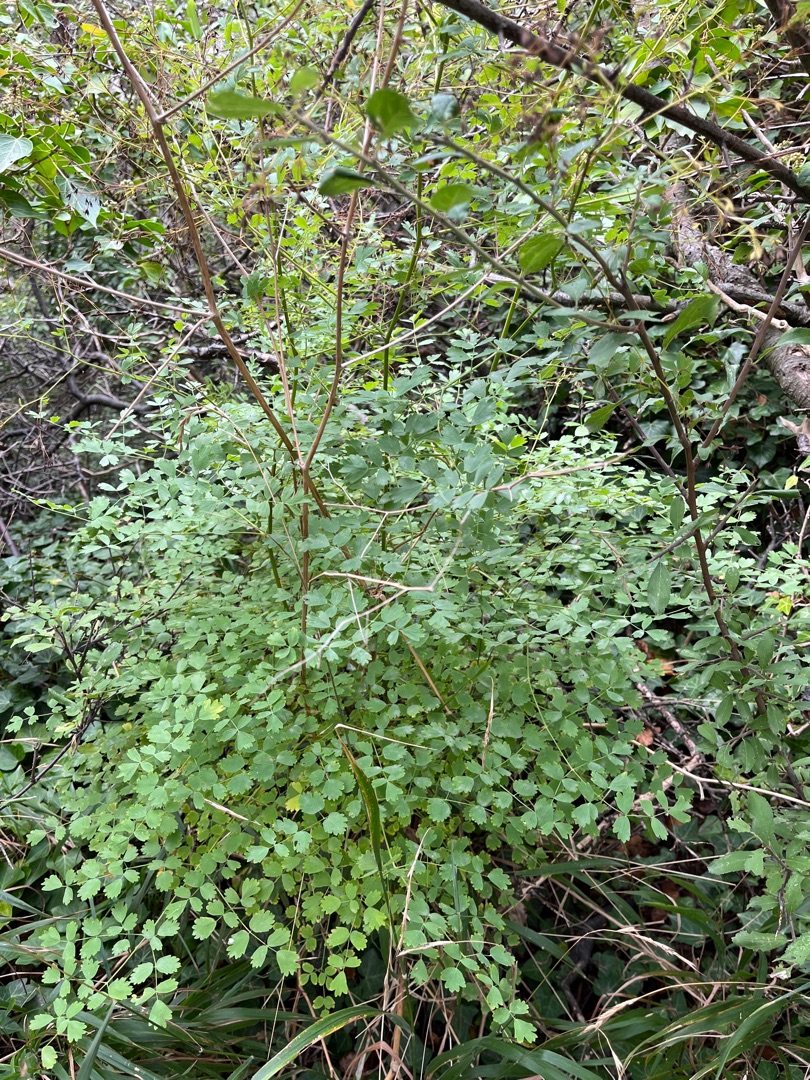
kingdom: Plantae
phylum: Tracheophyta
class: Magnoliopsida
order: Ranunculales
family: Ranunculaceae
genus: Thalictrum
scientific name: Thalictrum minus
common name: Bugtet frøstjerne
